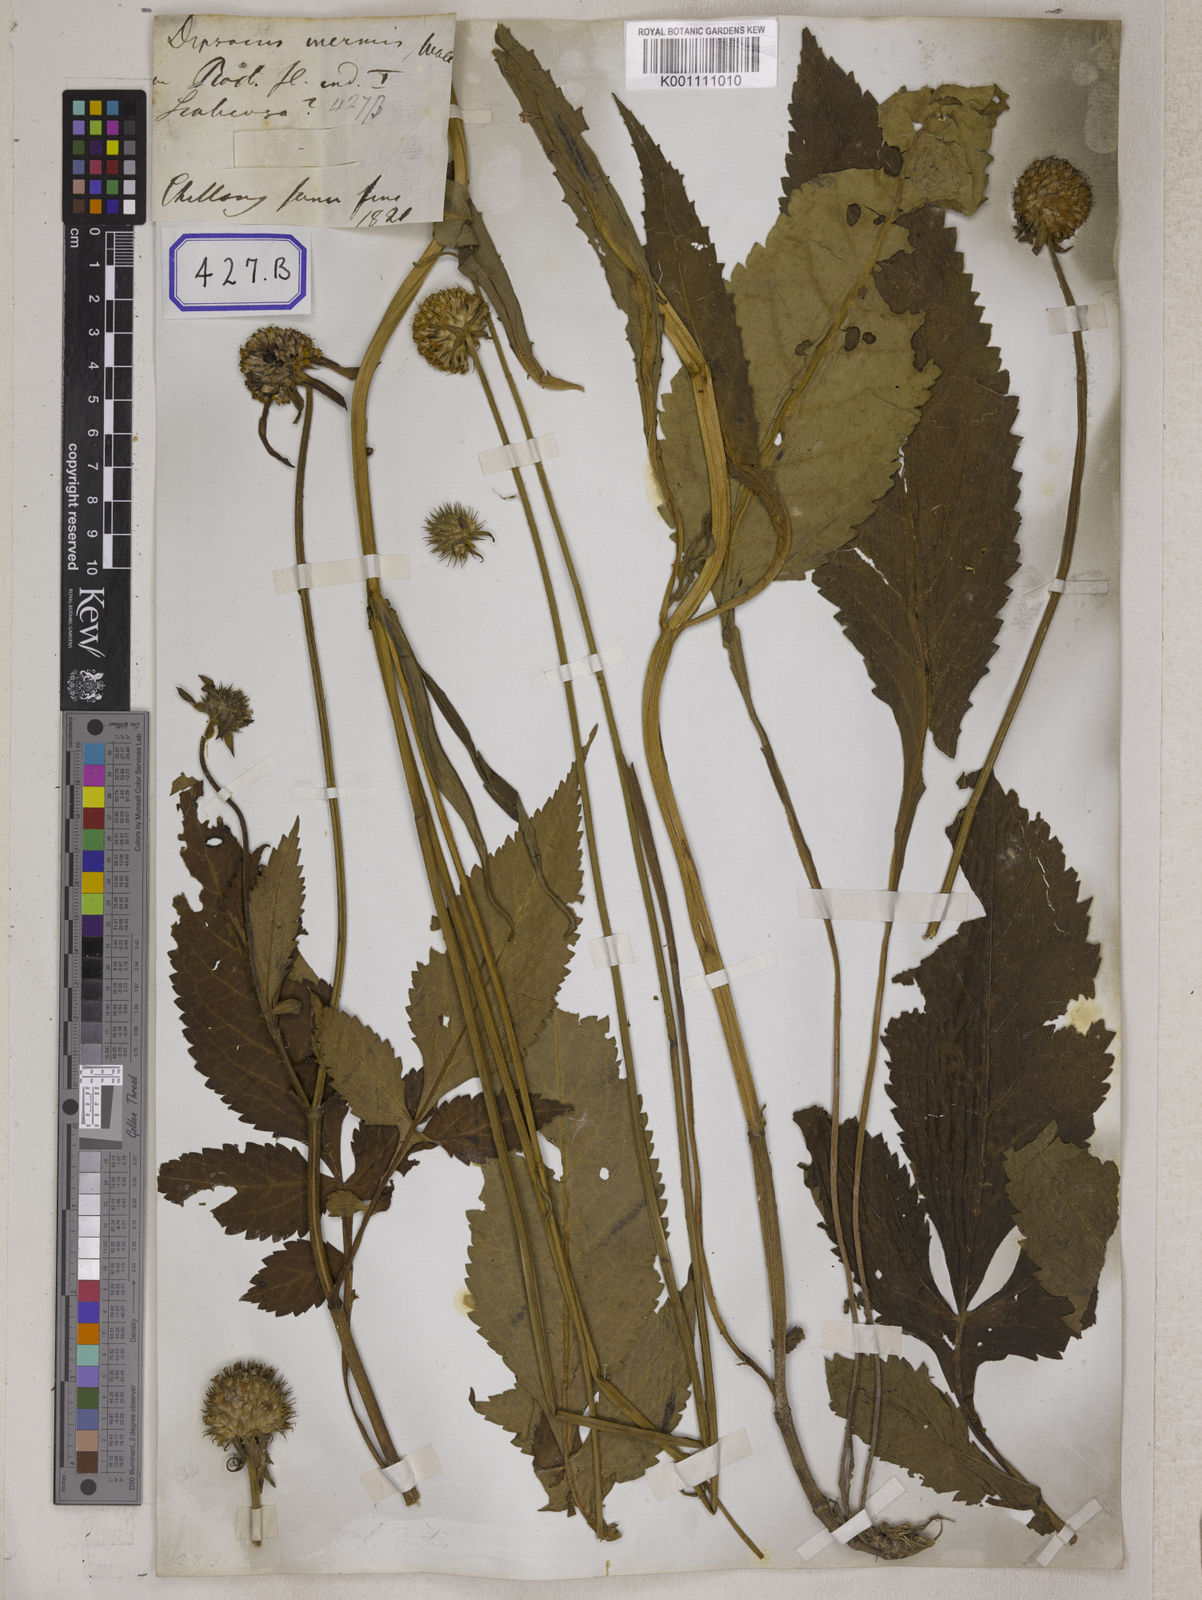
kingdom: Plantae
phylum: Tracheophyta
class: Magnoliopsida
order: Dipsacales
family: Caprifoliaceae
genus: Dipsacus
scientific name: Dipsacus
